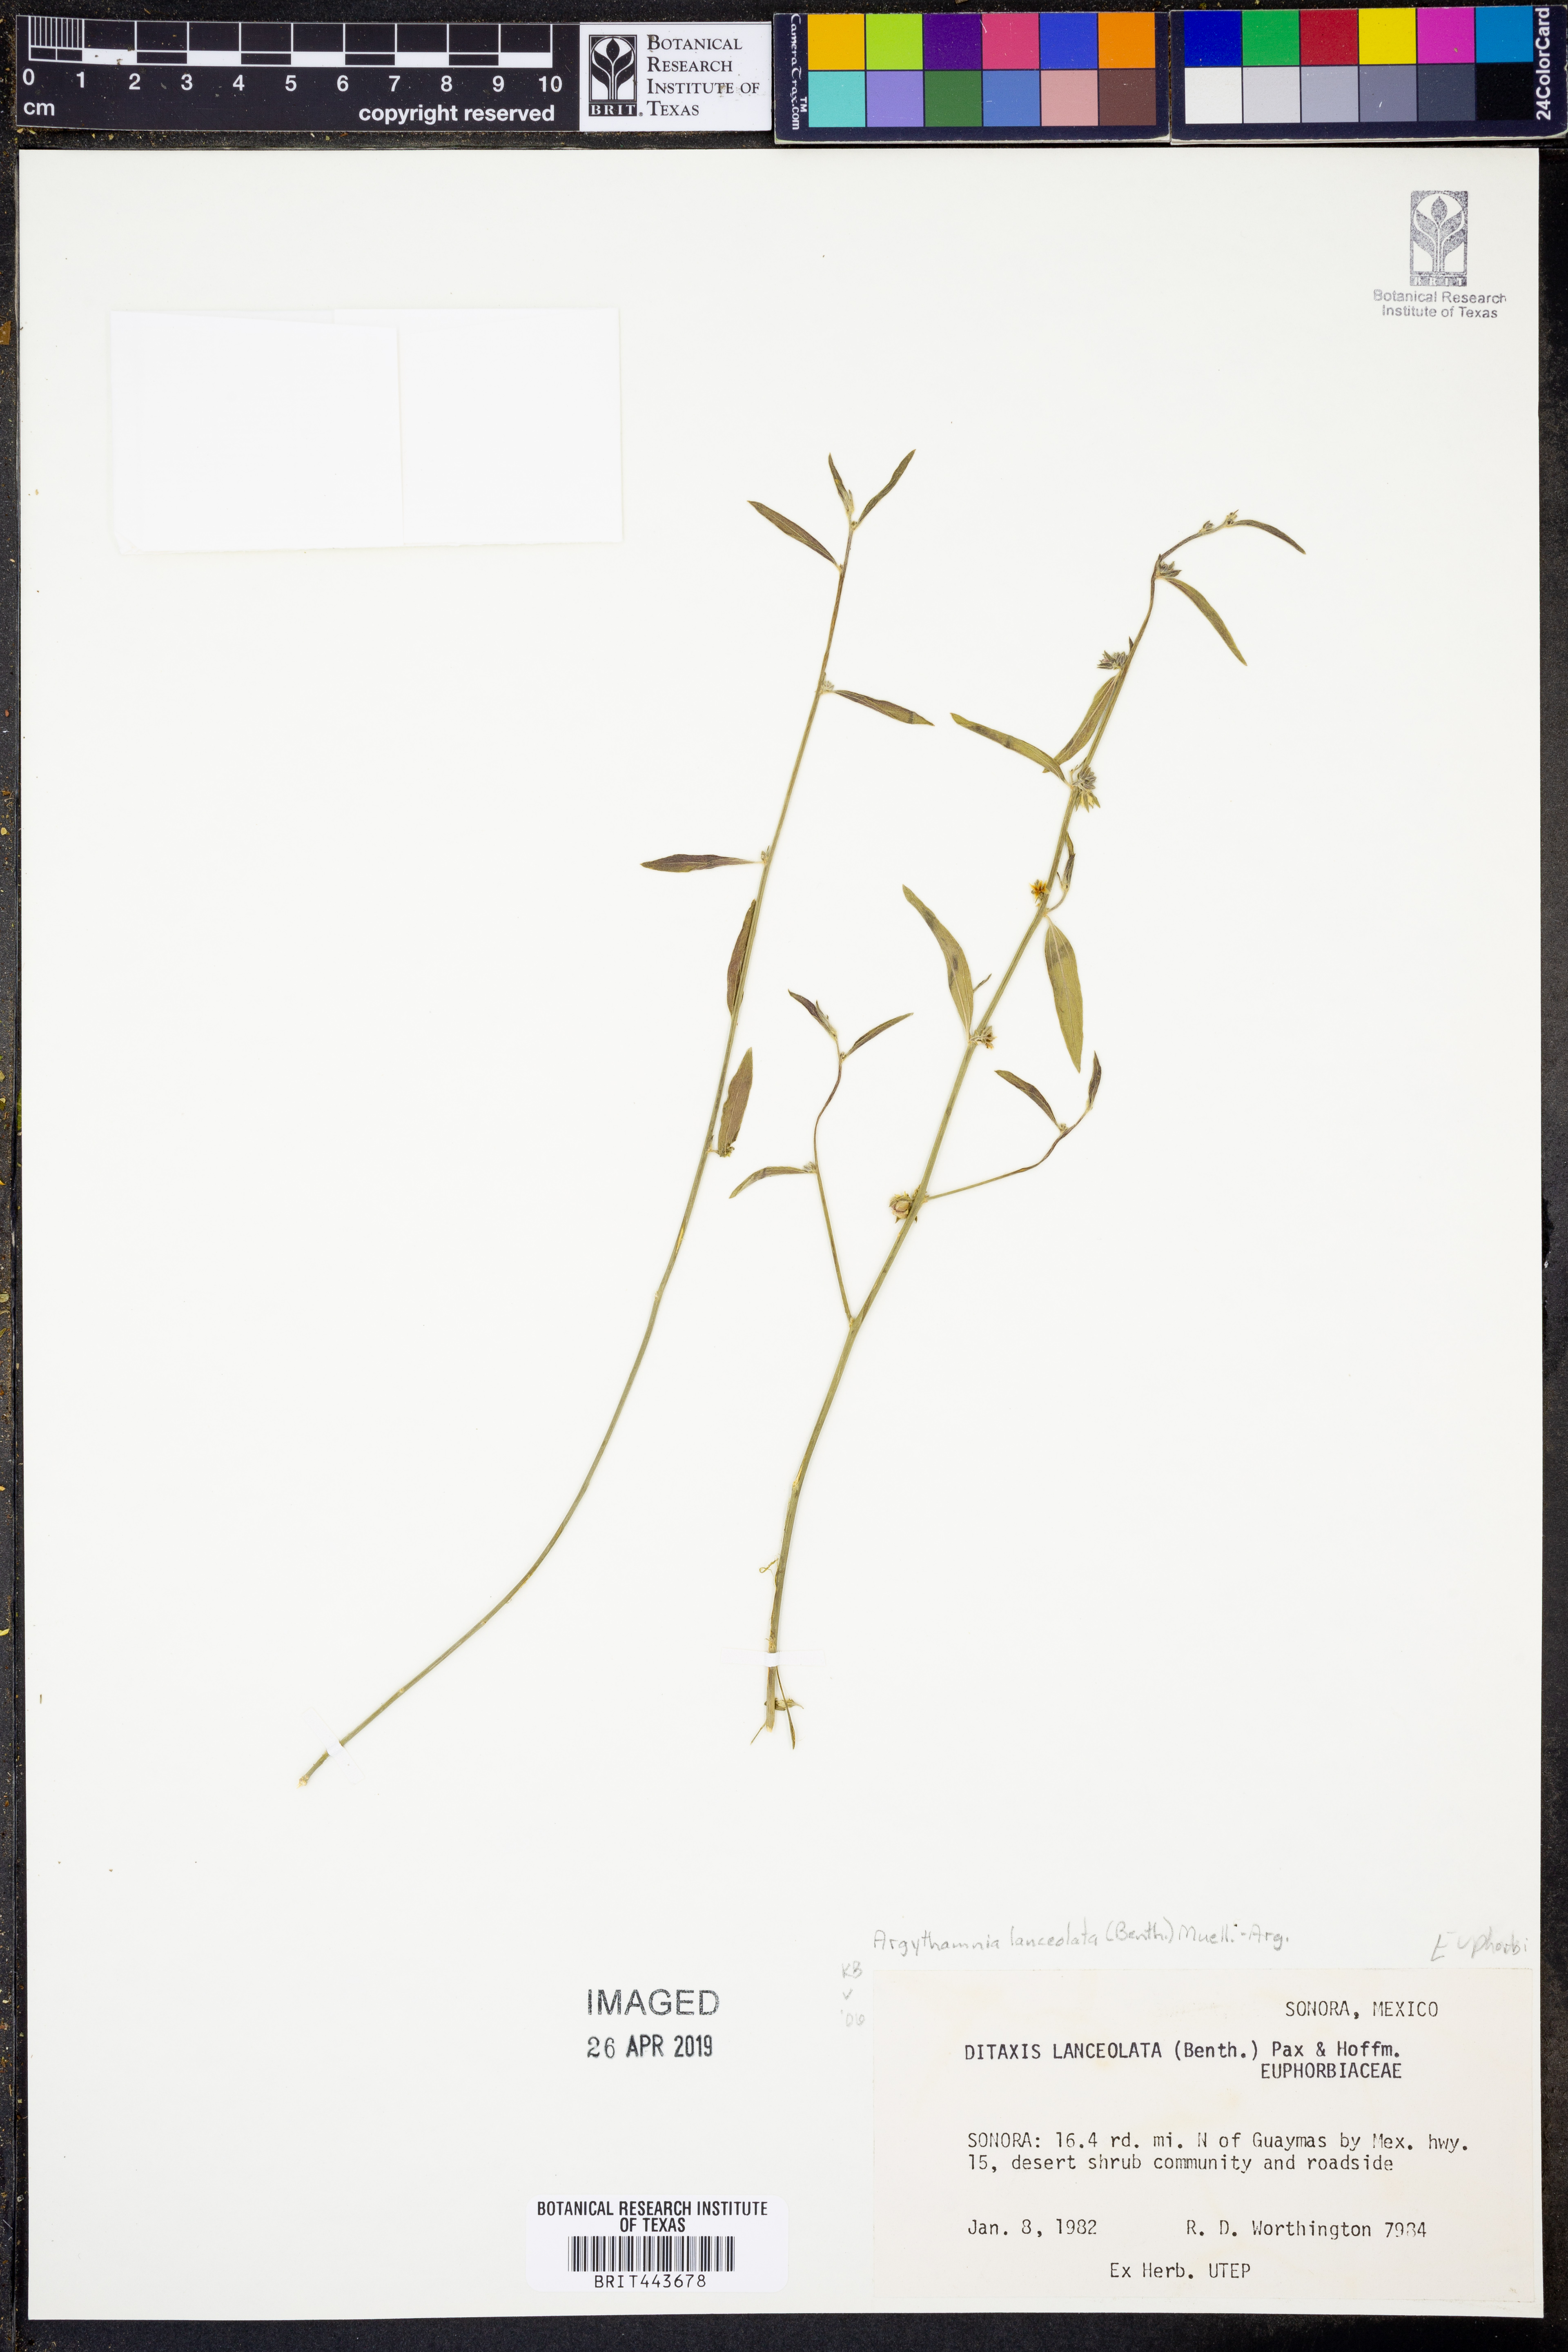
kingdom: Plantae
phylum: Tracheophyta
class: Magnoliopsida
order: Malpighiales
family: Euphorbiaceae
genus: Ditaxis
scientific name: Ditaxis lanceolata
